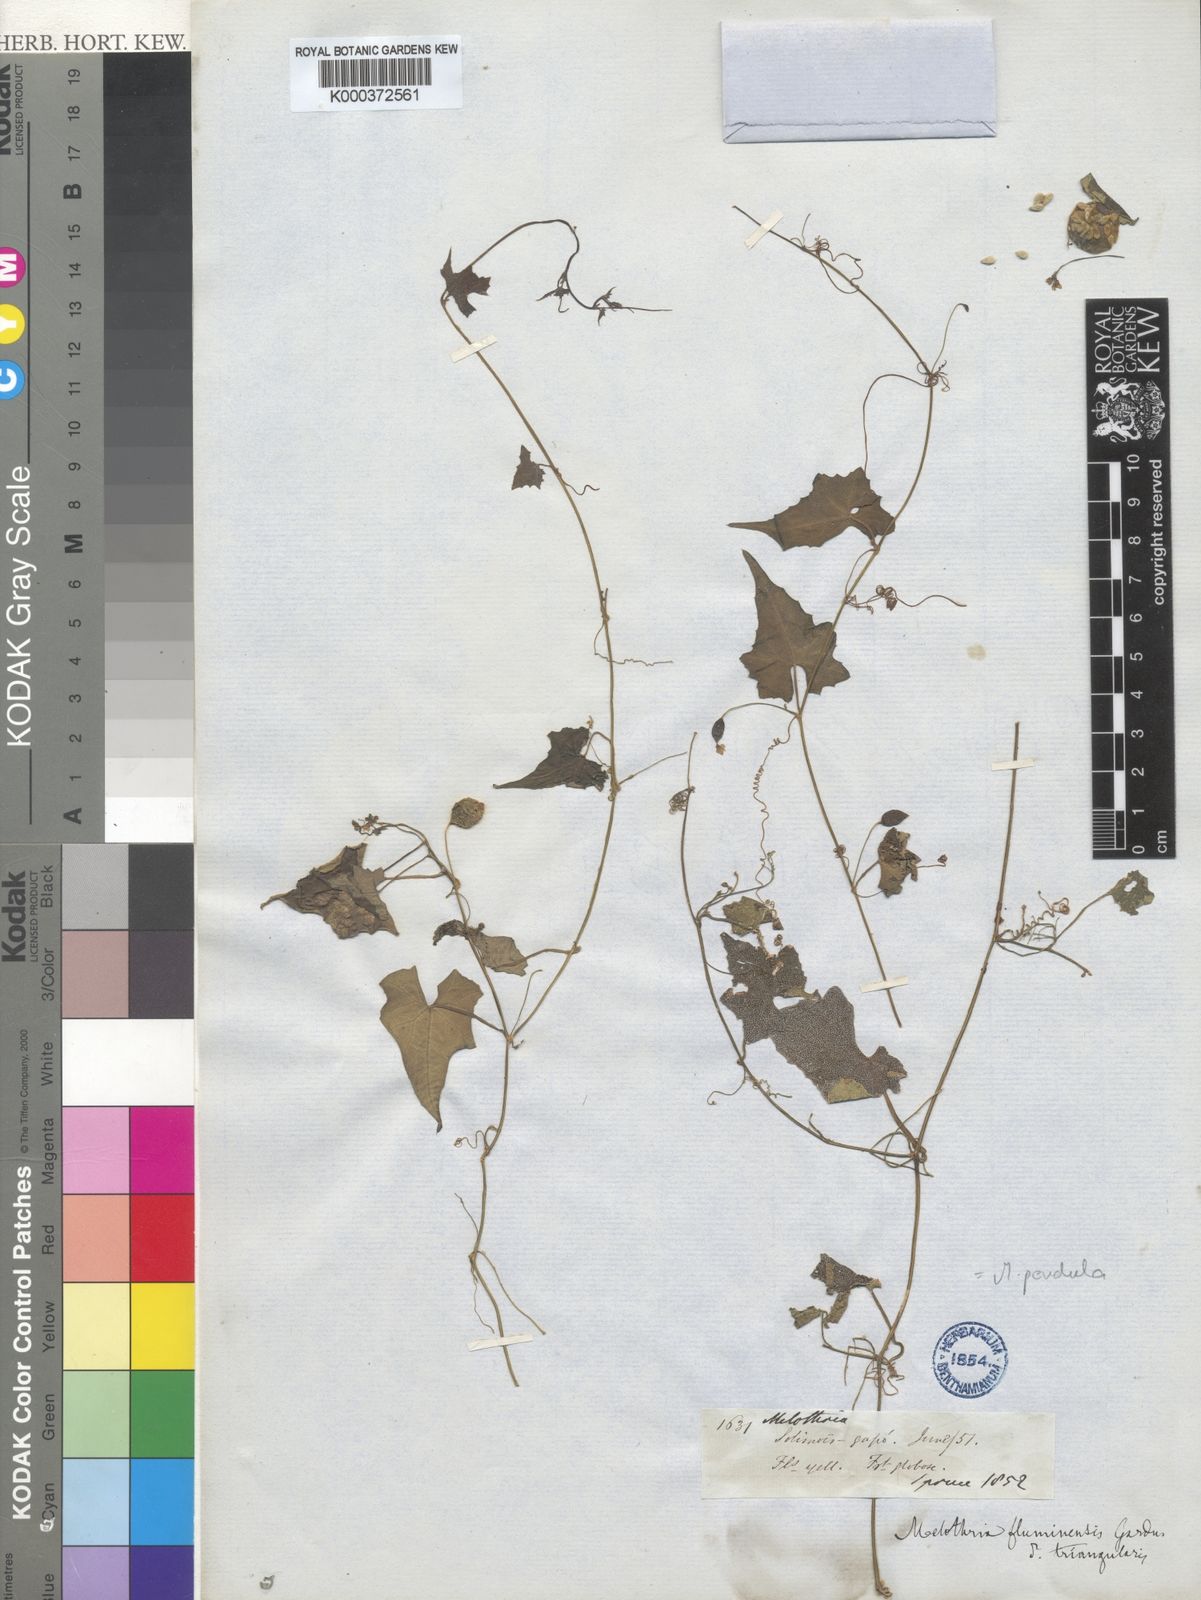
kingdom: Plantae
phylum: Tracheophyta
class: Magnoliopsida
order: Cucurbitales
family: Cucurbitaceae
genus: Melothria
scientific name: Melothria pendula
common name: Creeping-cucumber
